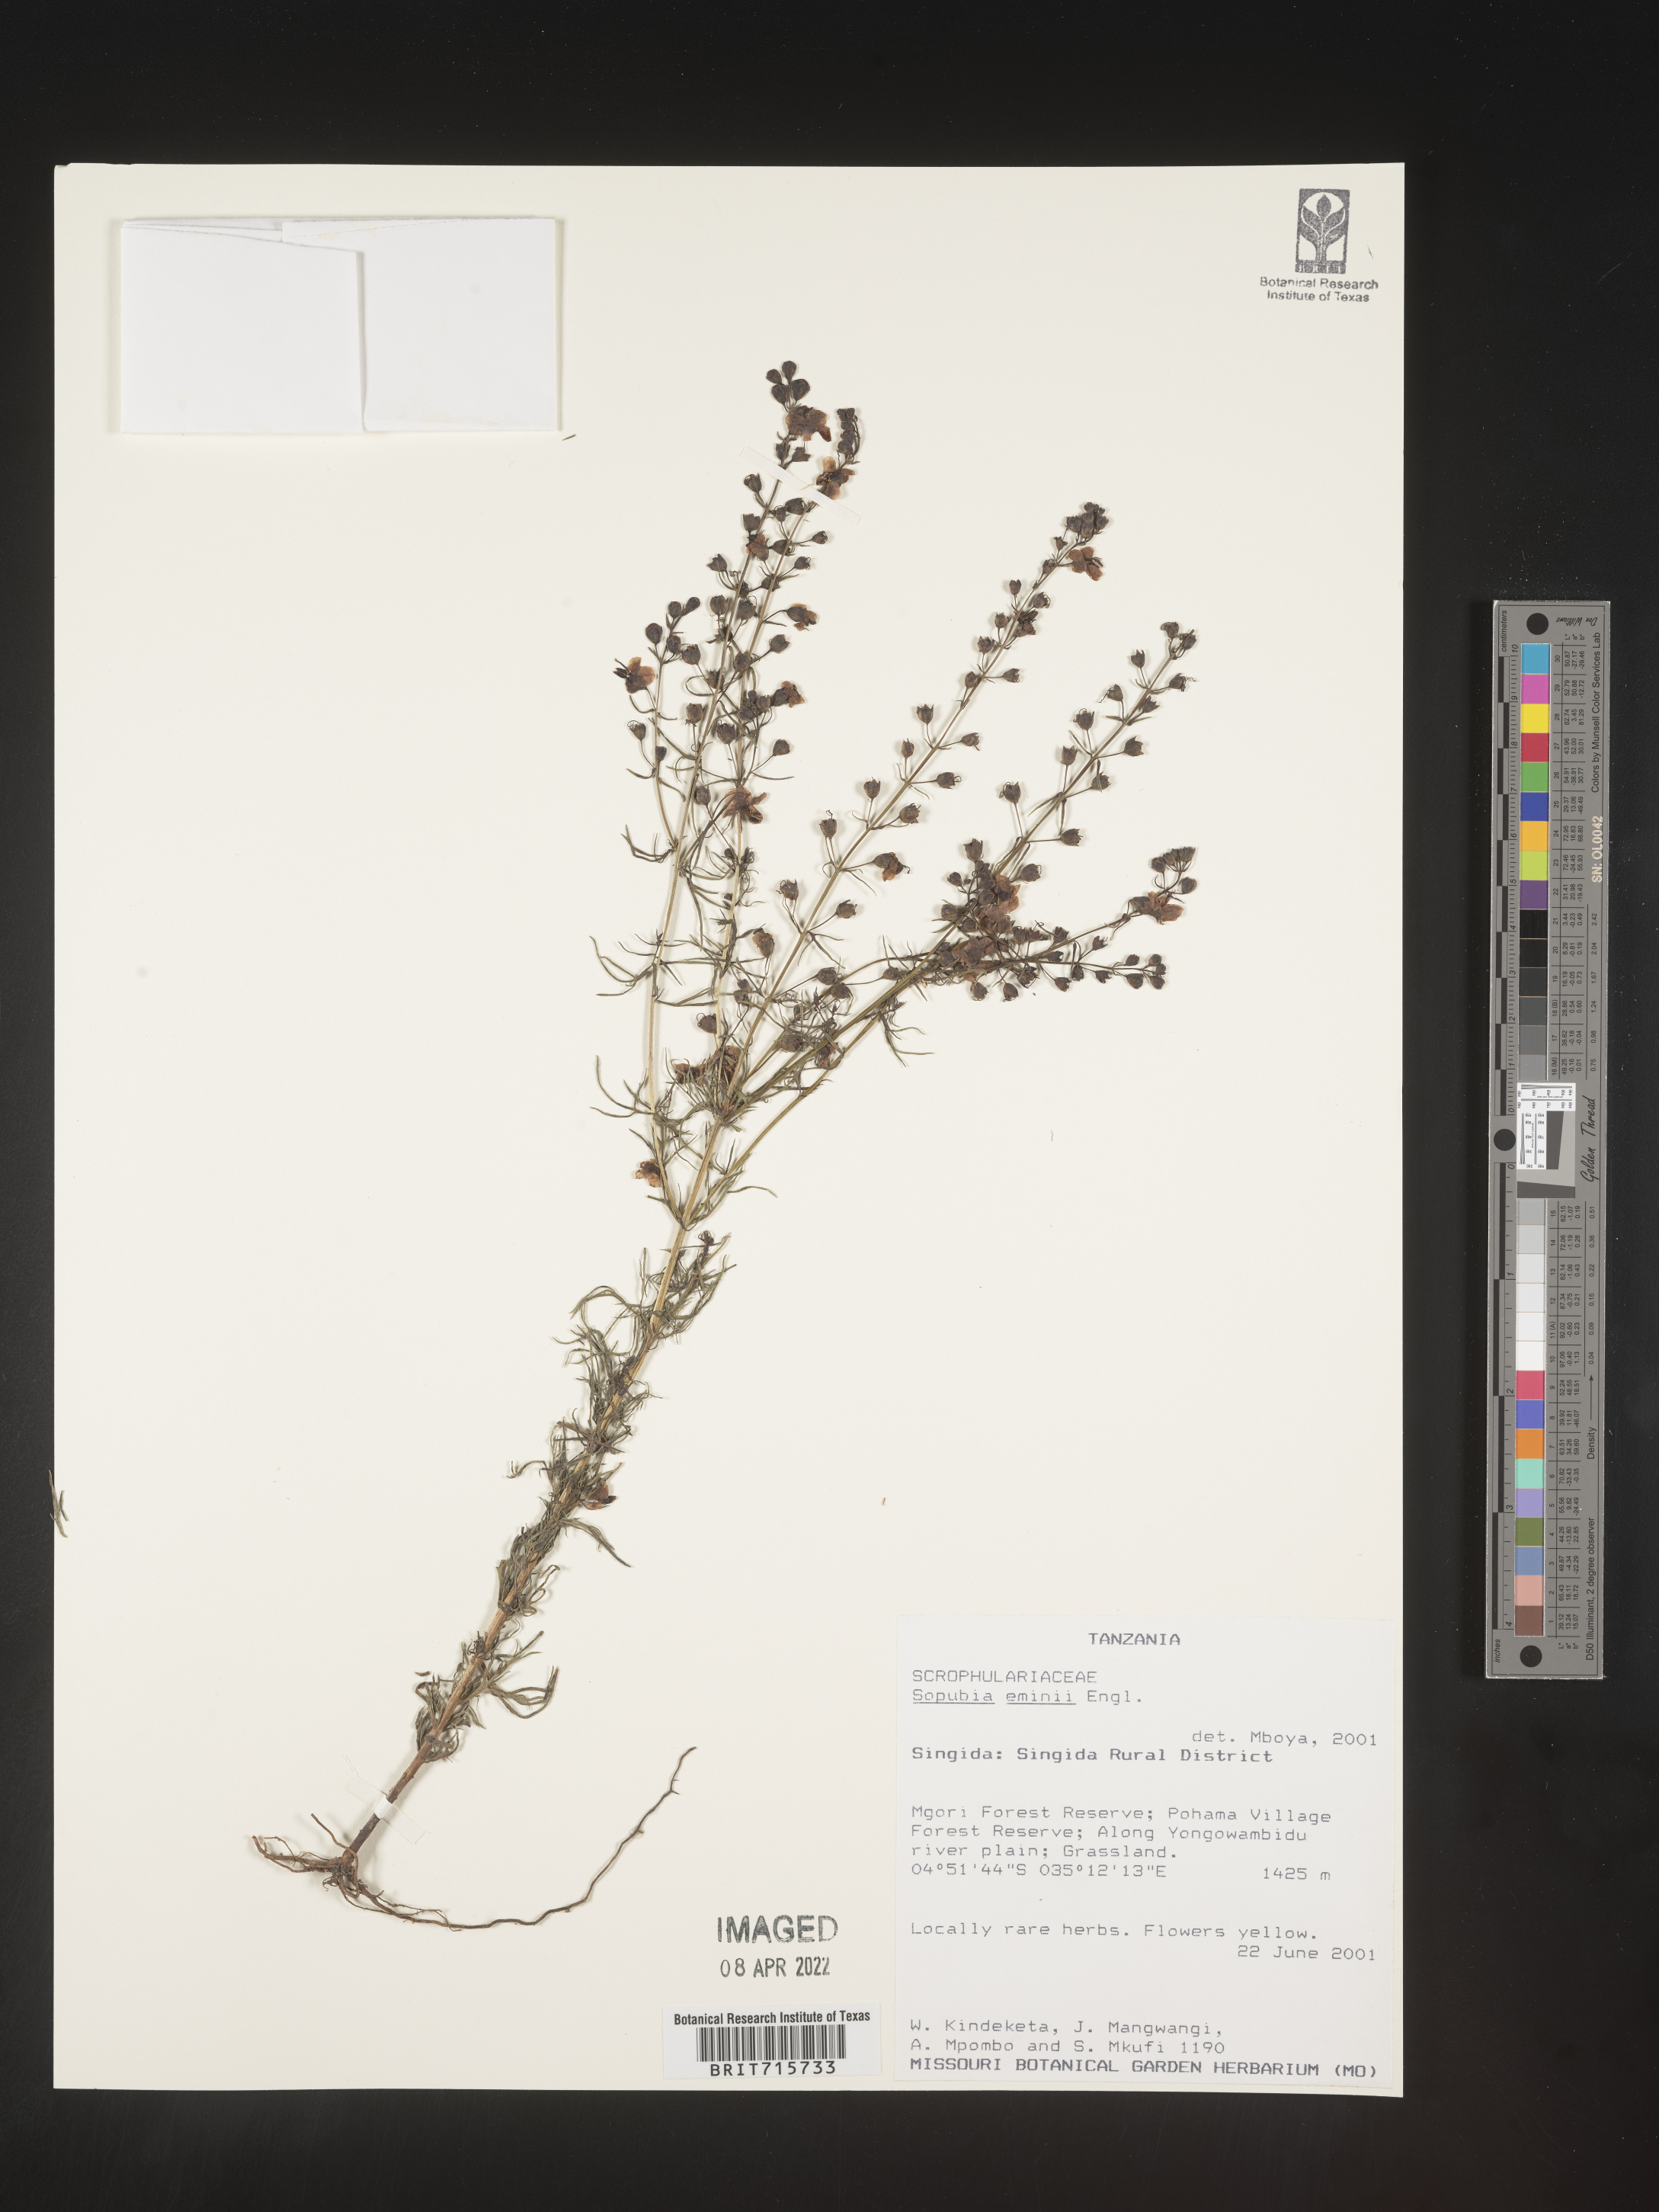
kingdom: Plantae
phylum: Tracheophyta
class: Magnoliopsida
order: Lamiales
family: Orobanchaceae
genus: Sopubia
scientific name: Sopubia
